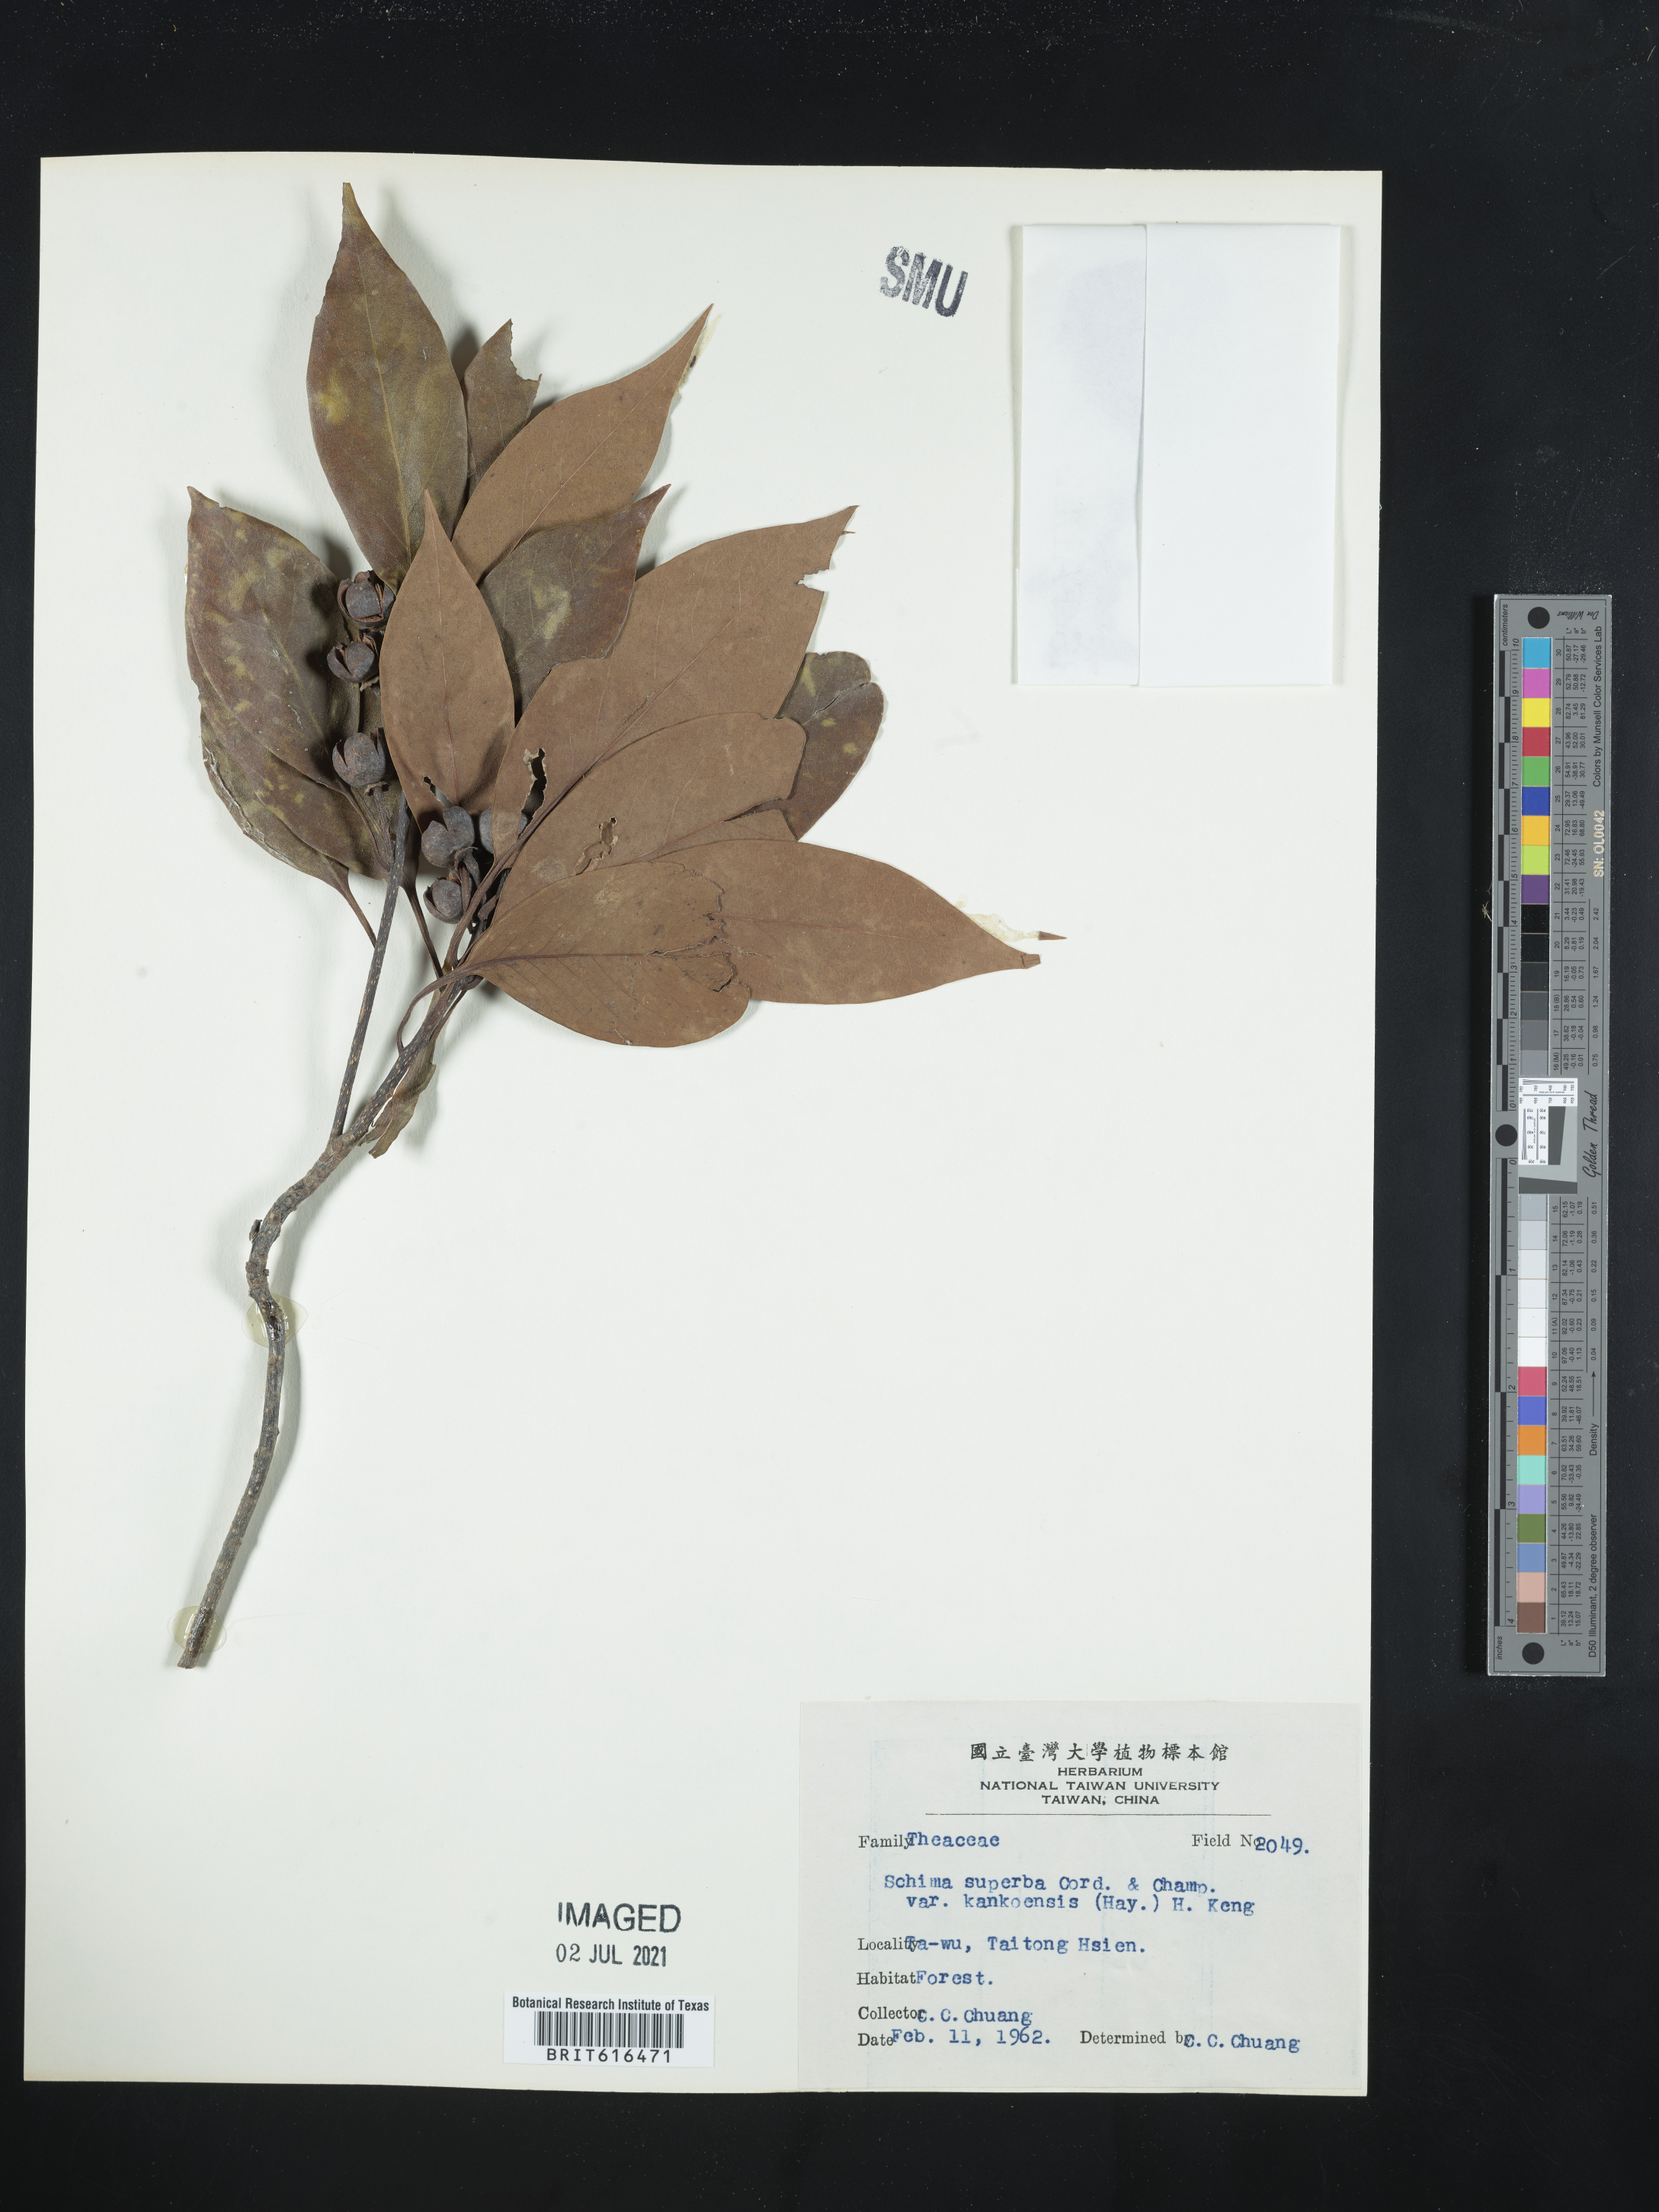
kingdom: Plantae
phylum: Tracheophyta
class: Magnoliopsida
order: Ericales
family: Theaceae
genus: Schima
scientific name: Schima superba
